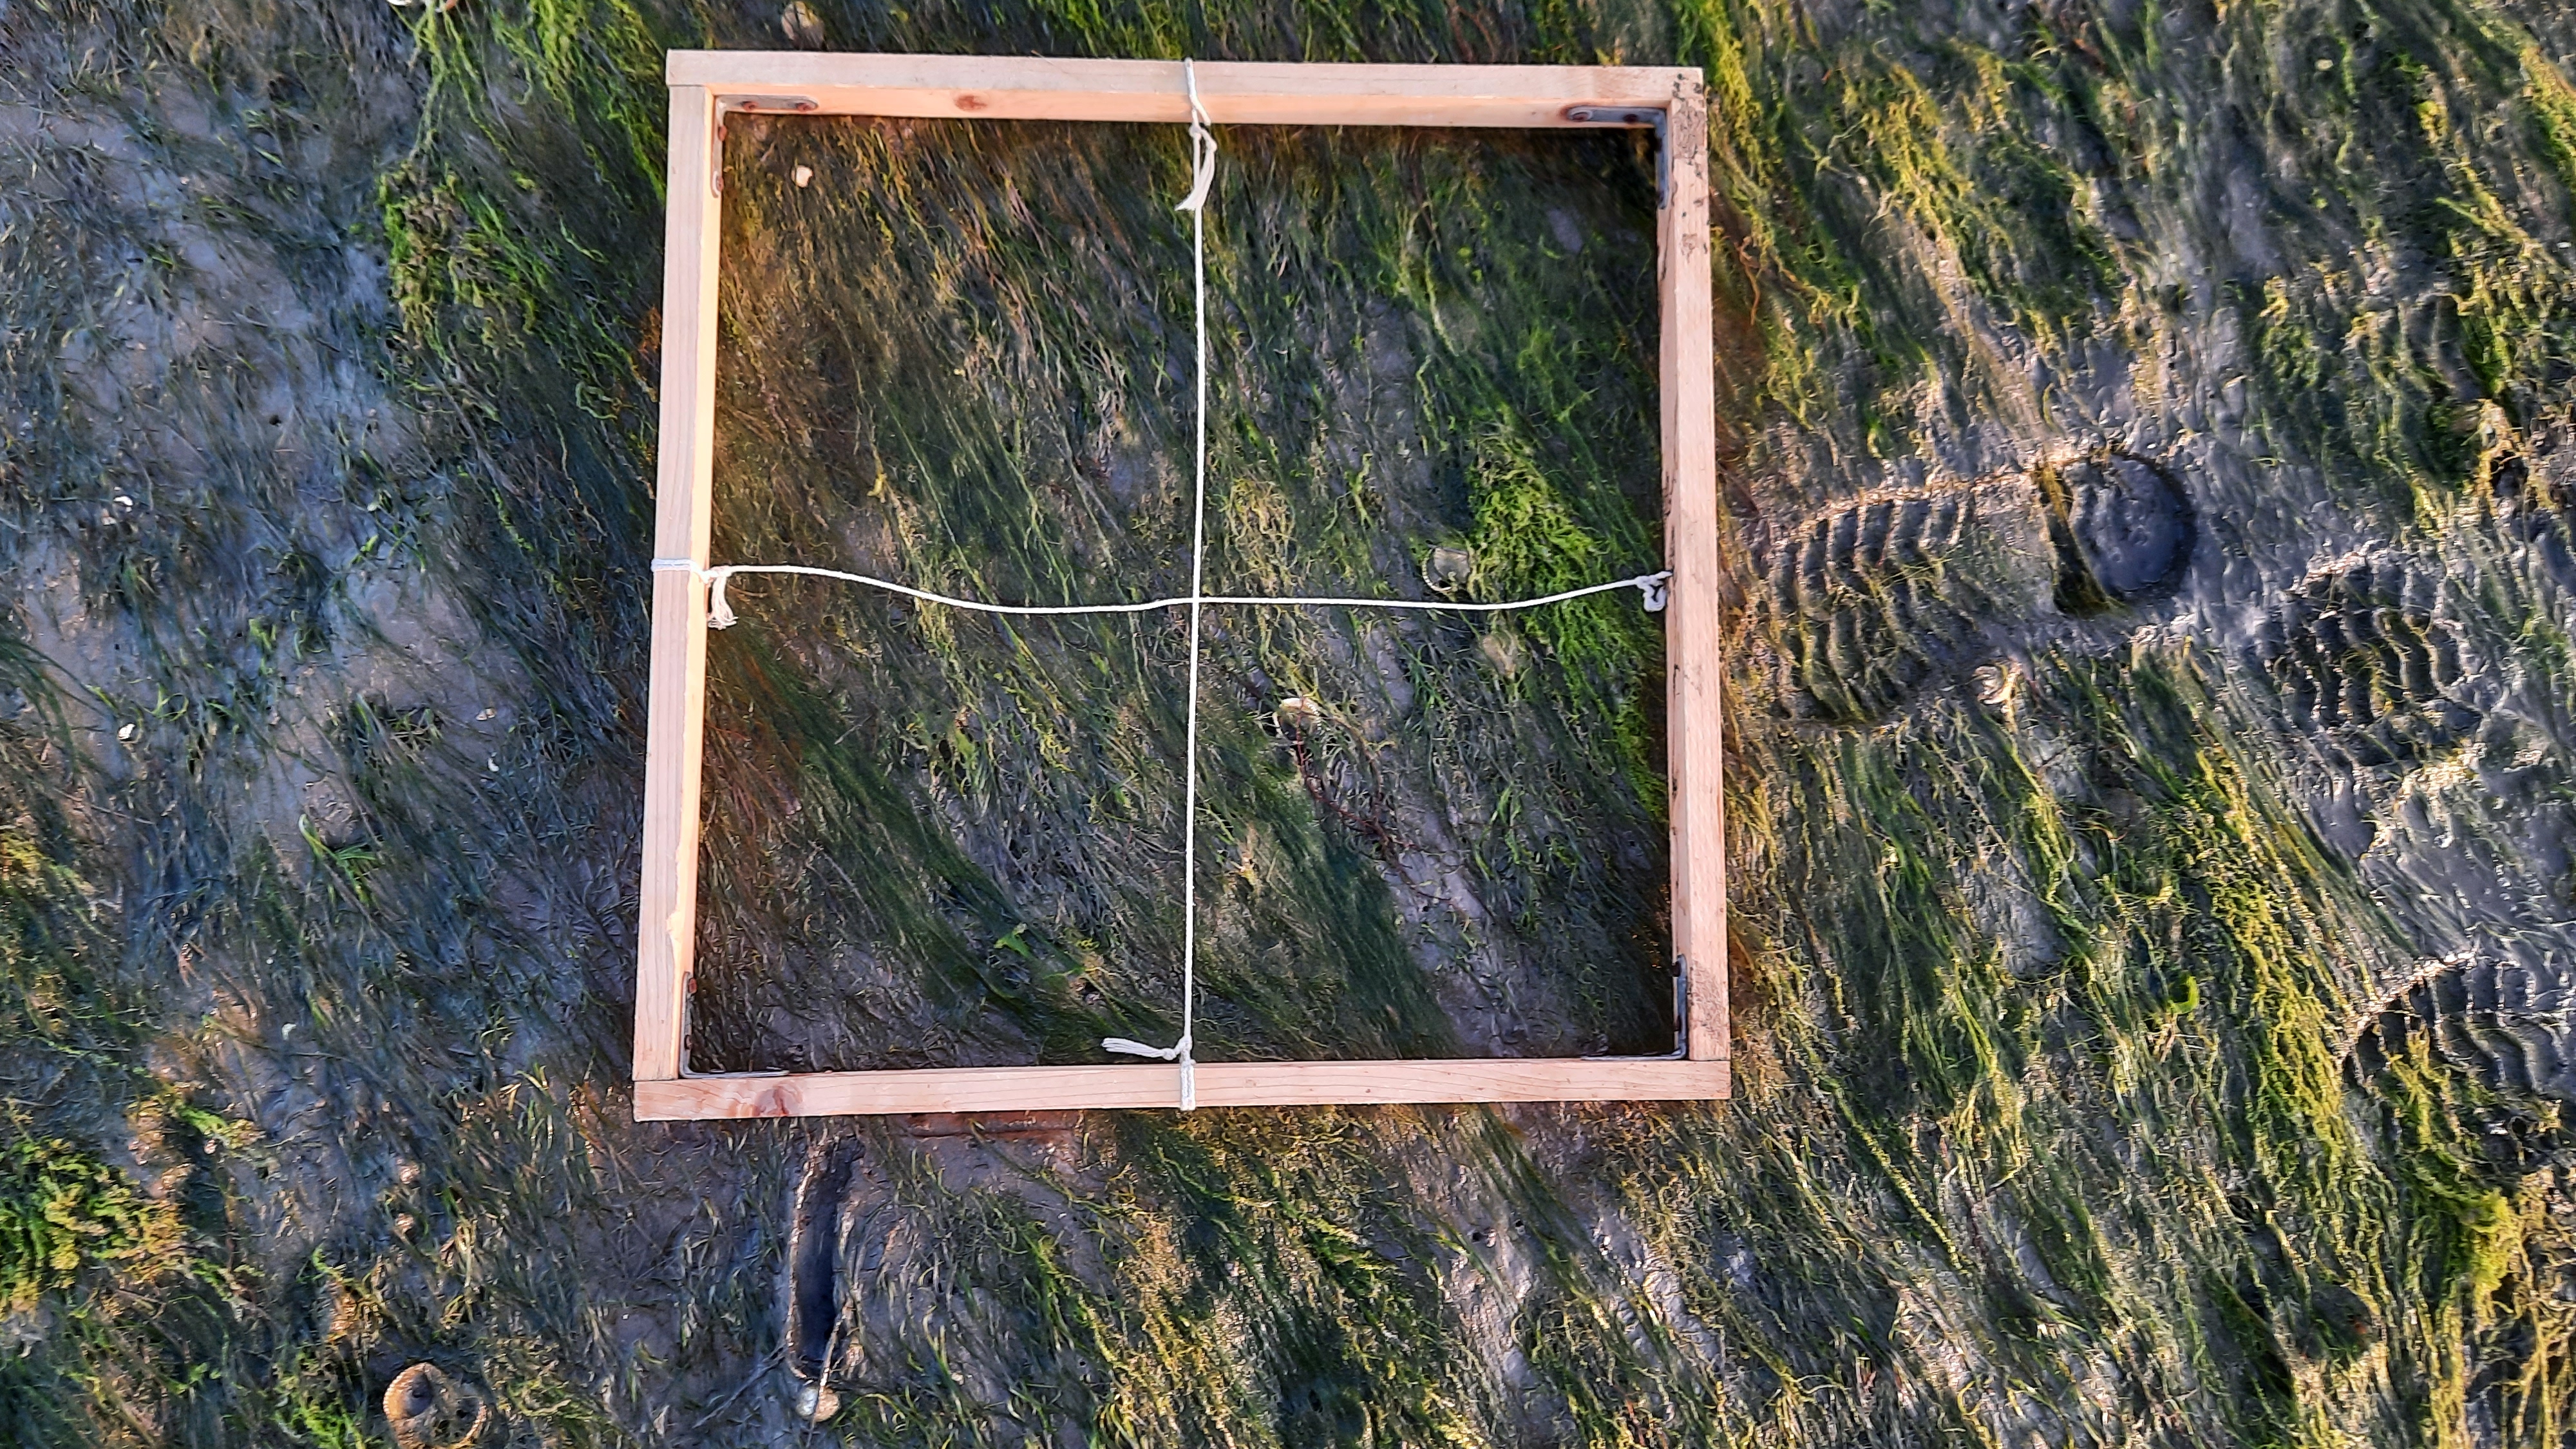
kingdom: Plantae
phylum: Tracheophyta
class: Liliopsida
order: Alismatales
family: Zosteraceae
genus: Zostera
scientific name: Zostera noltii
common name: Dwarf eelgrass
